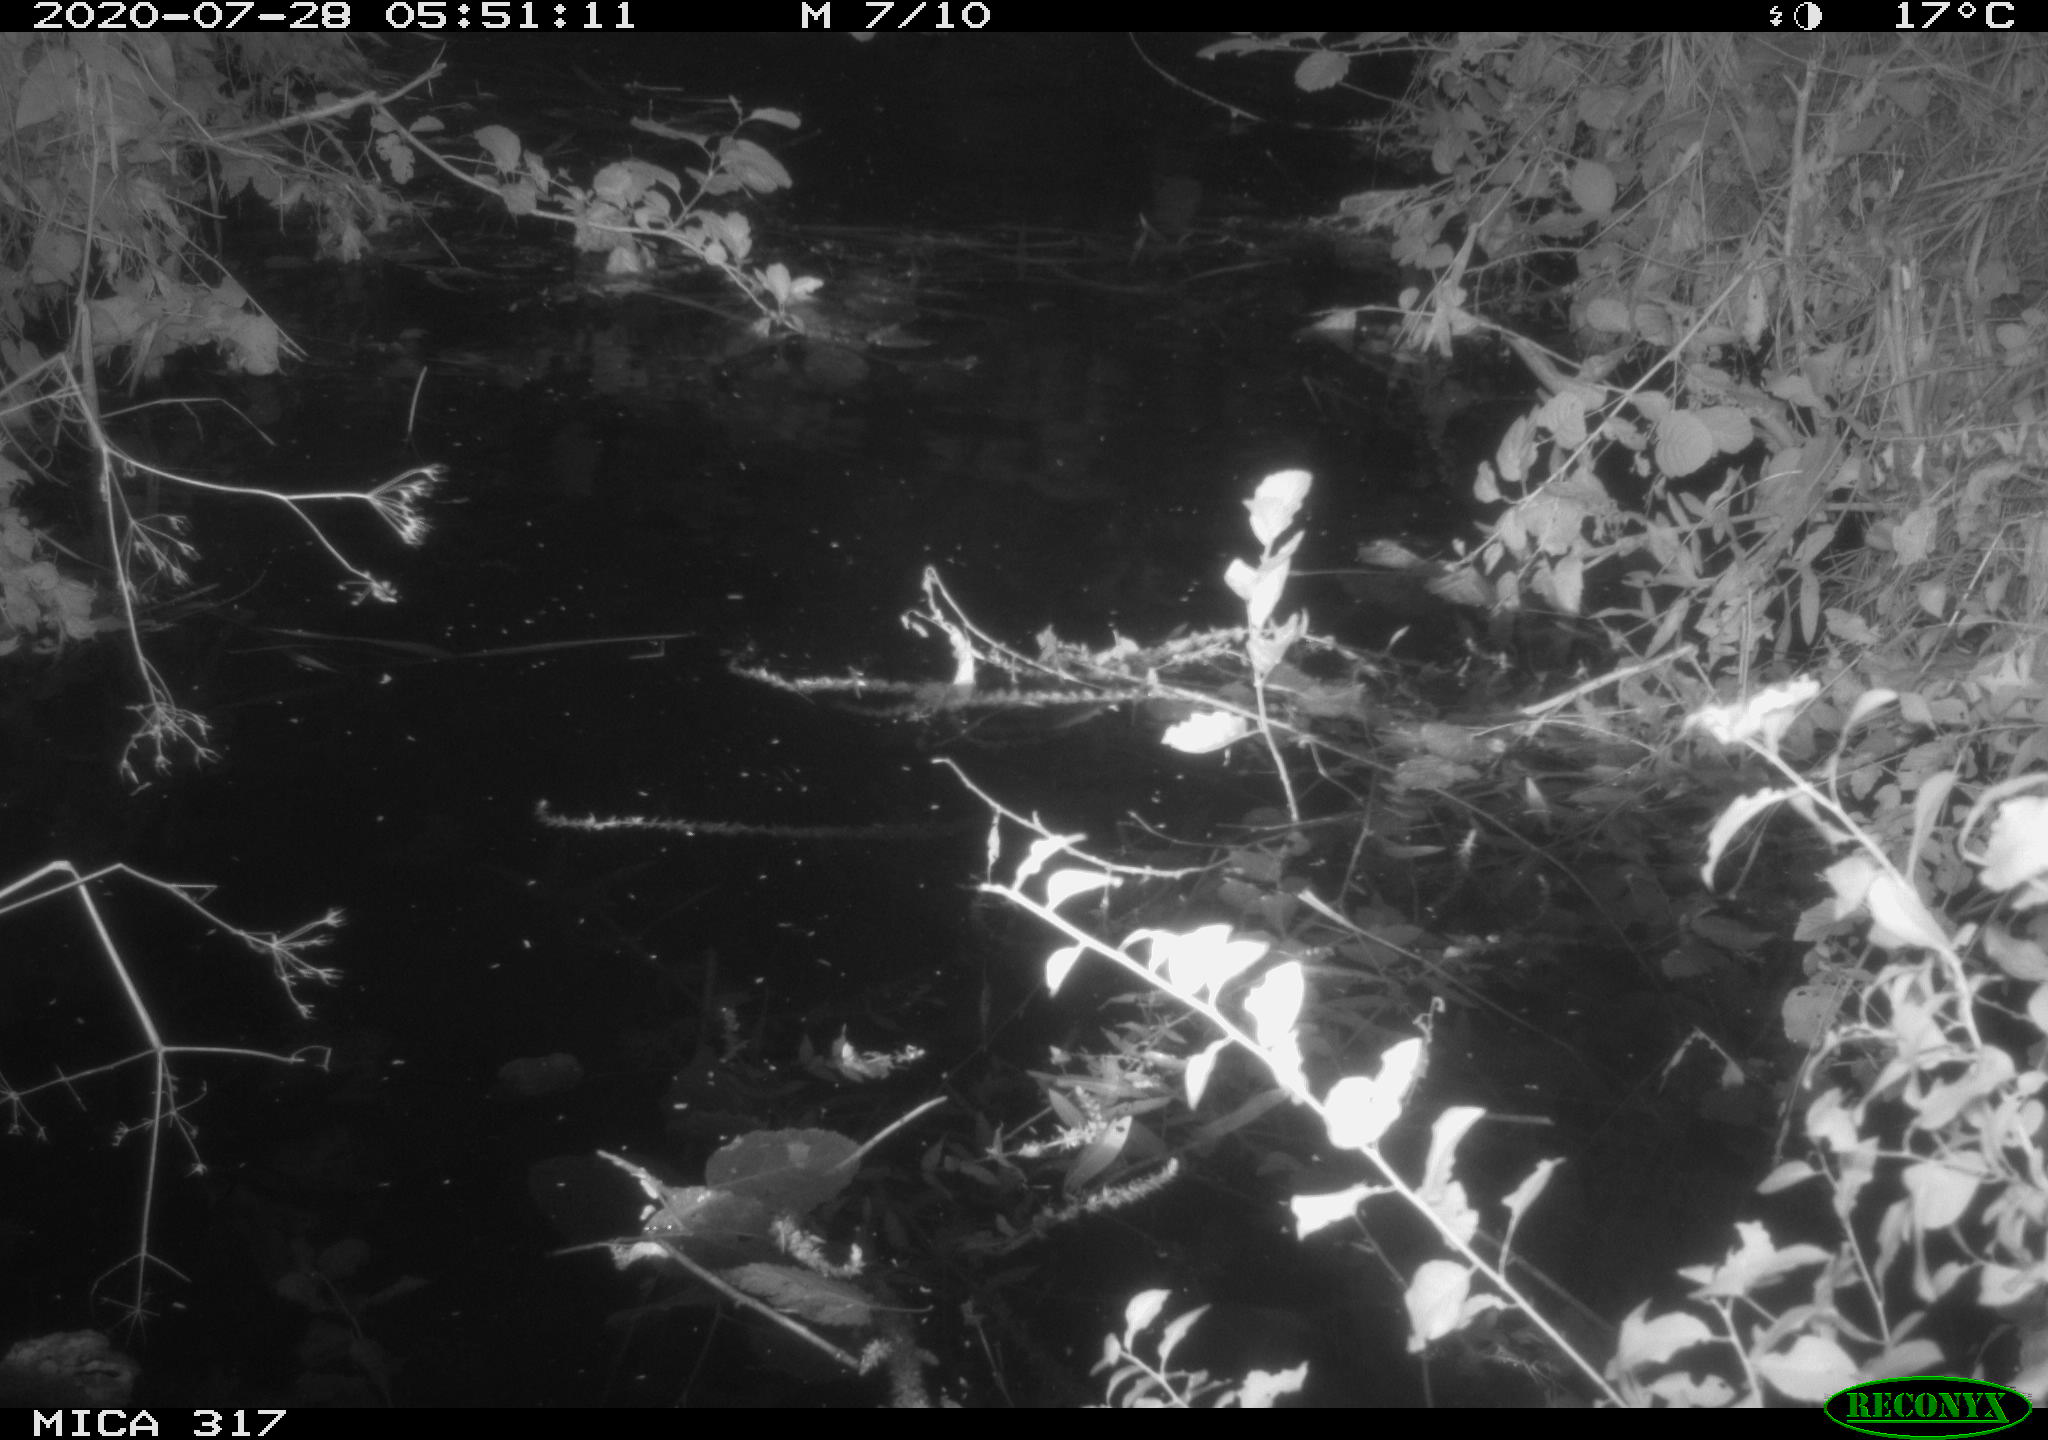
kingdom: Animalia
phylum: Chordata
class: Aves
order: Anseriformes
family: Anatidae
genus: Anas
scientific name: Anas platyrhynchos
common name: Mallard
